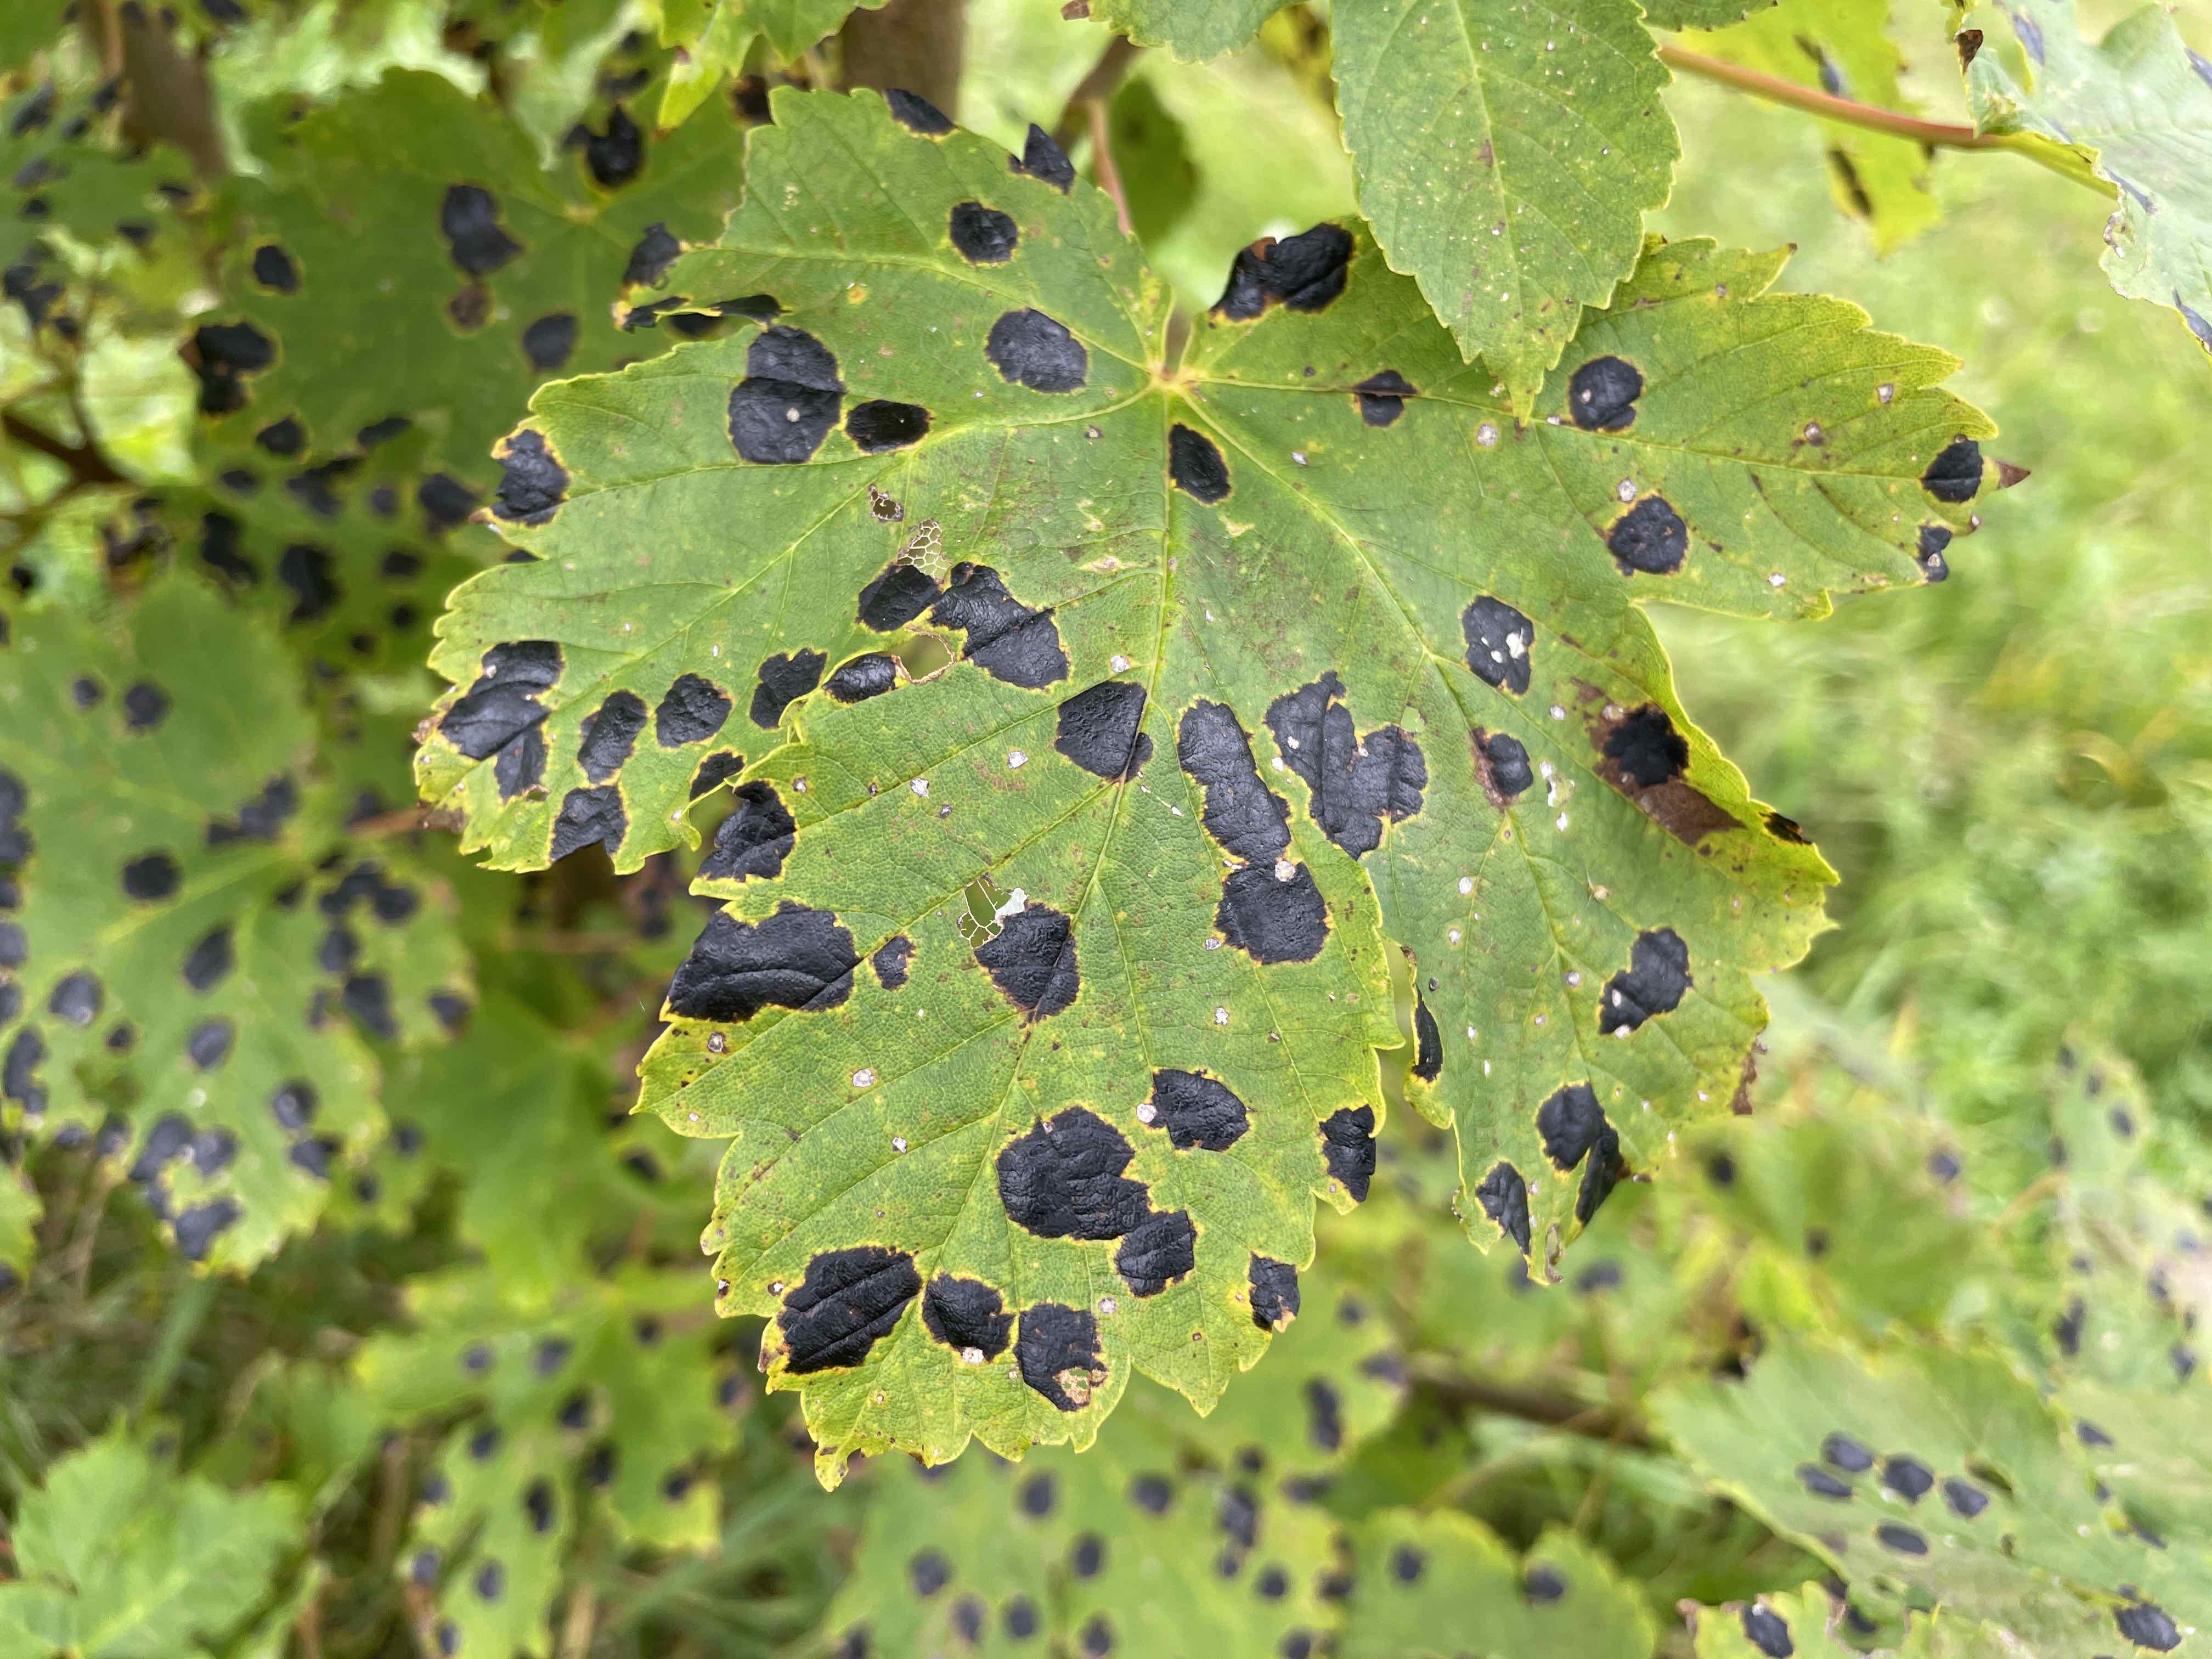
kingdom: Fungi
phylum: Ascomycota
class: Leotiomycetes
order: Rhytismatales
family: Rhytismataceae
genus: Rhytisma
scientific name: Rhytisma acerinum
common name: ahorn-rynkeplet
